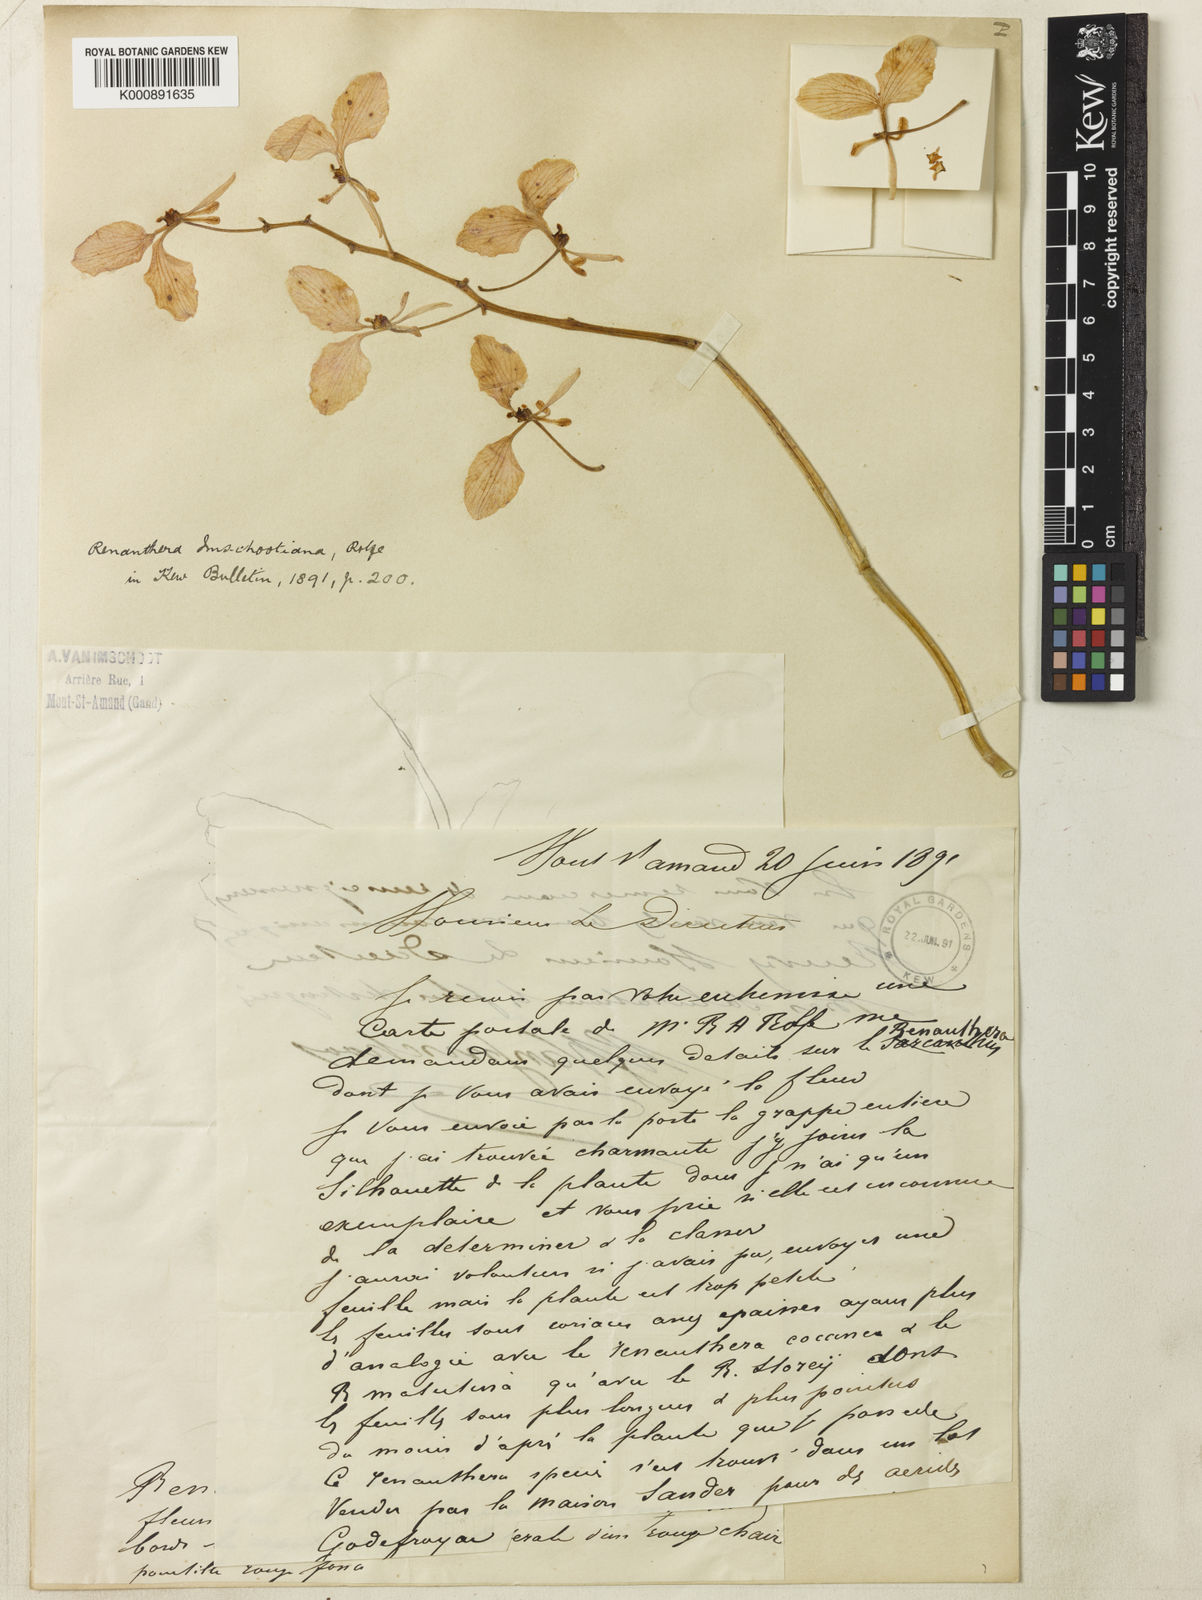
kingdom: Plantae
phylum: Tracheophyta
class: Liliopsida
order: Asparagales
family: Orchidaceae
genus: Renanthera
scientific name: Renanthera imschootiana
